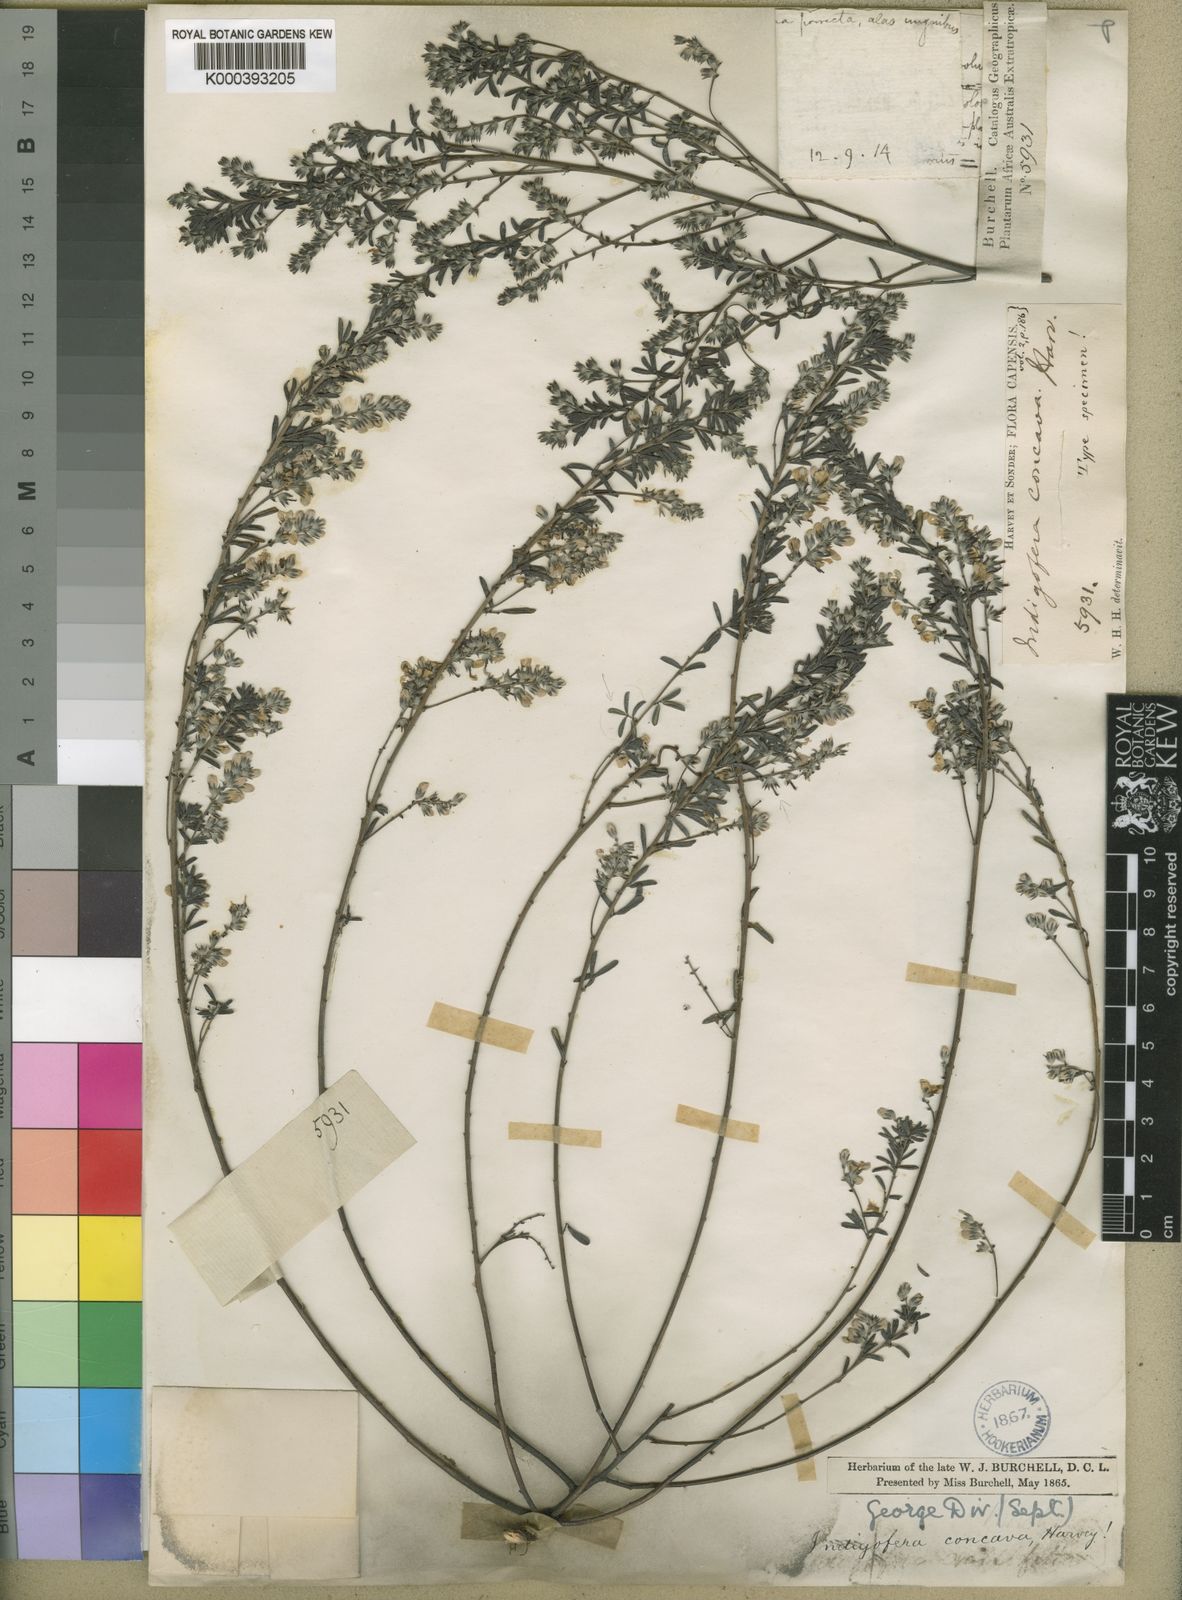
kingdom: Plantae
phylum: Tracheophyta
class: Magnoliopsida
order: Fabales
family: Fabaceae
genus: Indigofera
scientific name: Indigofera concava
